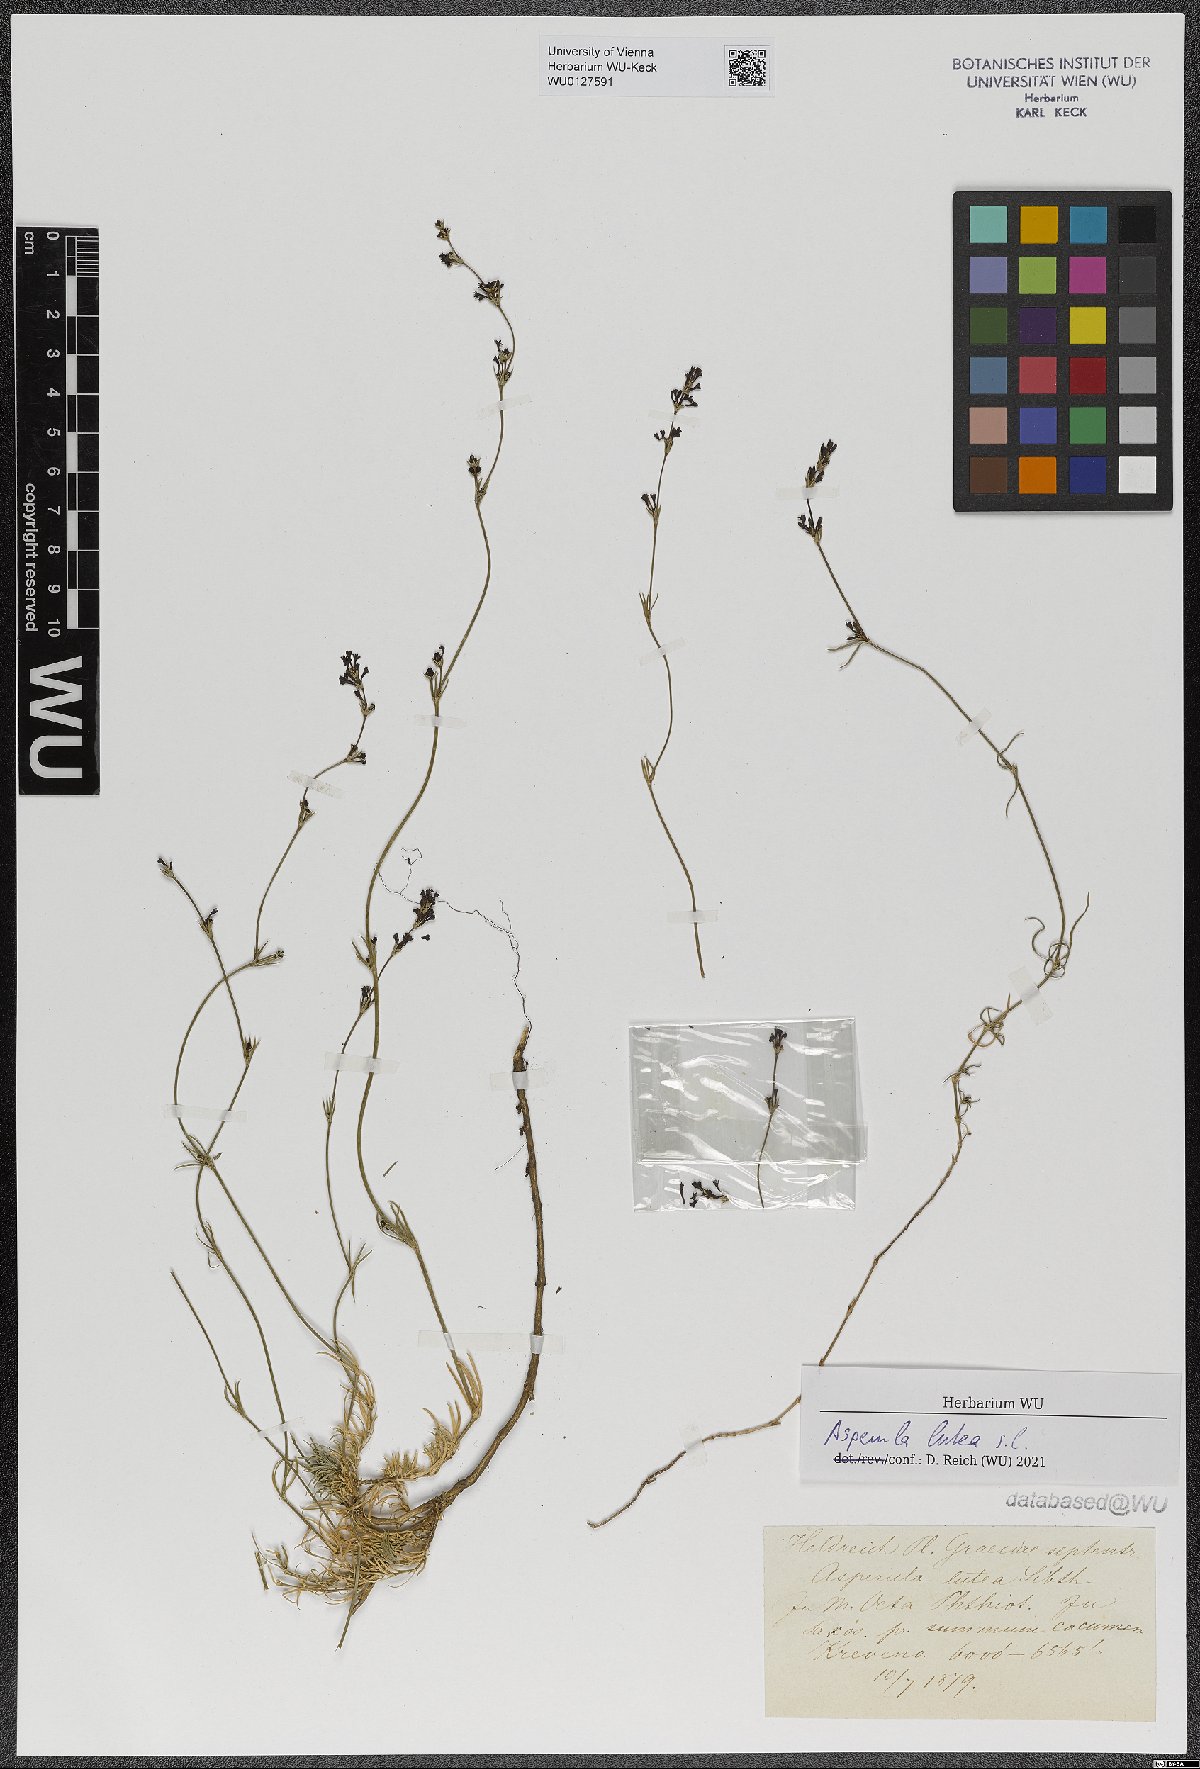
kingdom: Plantae
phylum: Tracheophyta
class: Magnoliopsida
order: Gentianales
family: Rubiaceae
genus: Cynanchica
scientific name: Cynanchica lutea
